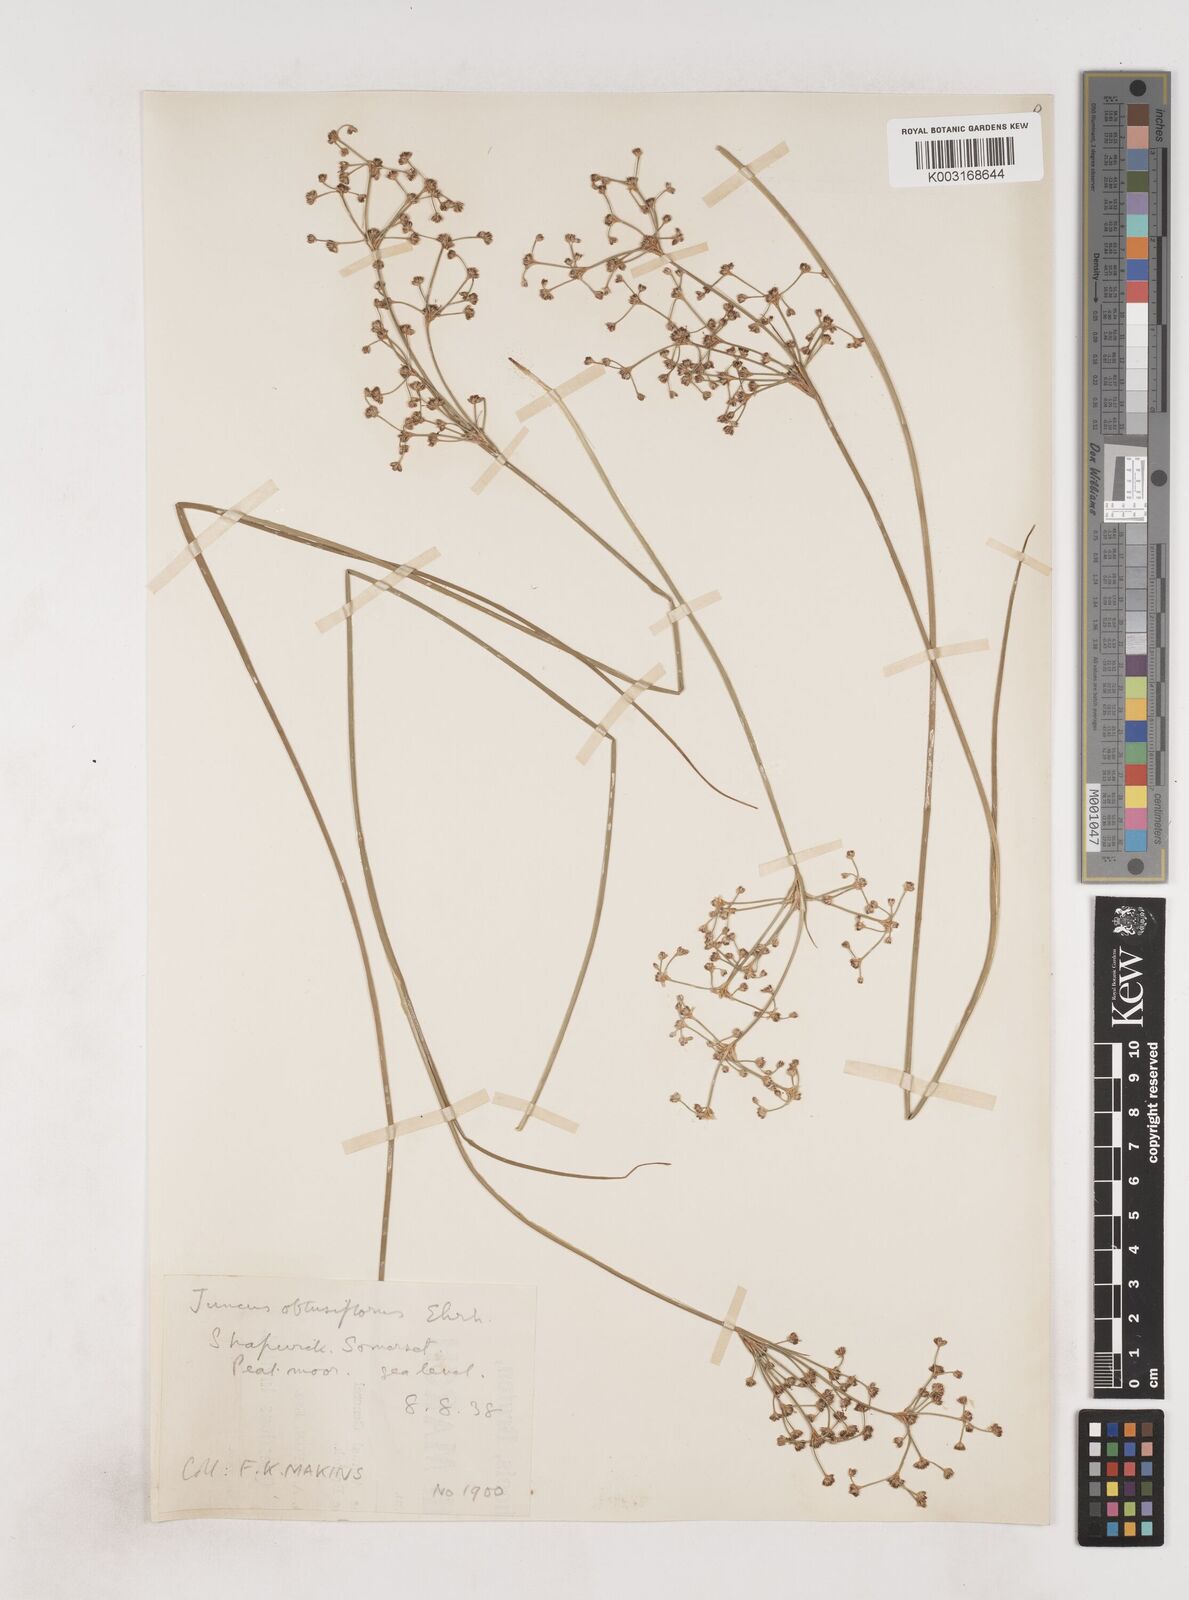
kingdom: Plantae
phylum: Tracheophyta
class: Liliopsida
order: Poales
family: Juncaceae
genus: Juncus
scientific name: Juncus subnodulosus
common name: Blunt-flowered rush
